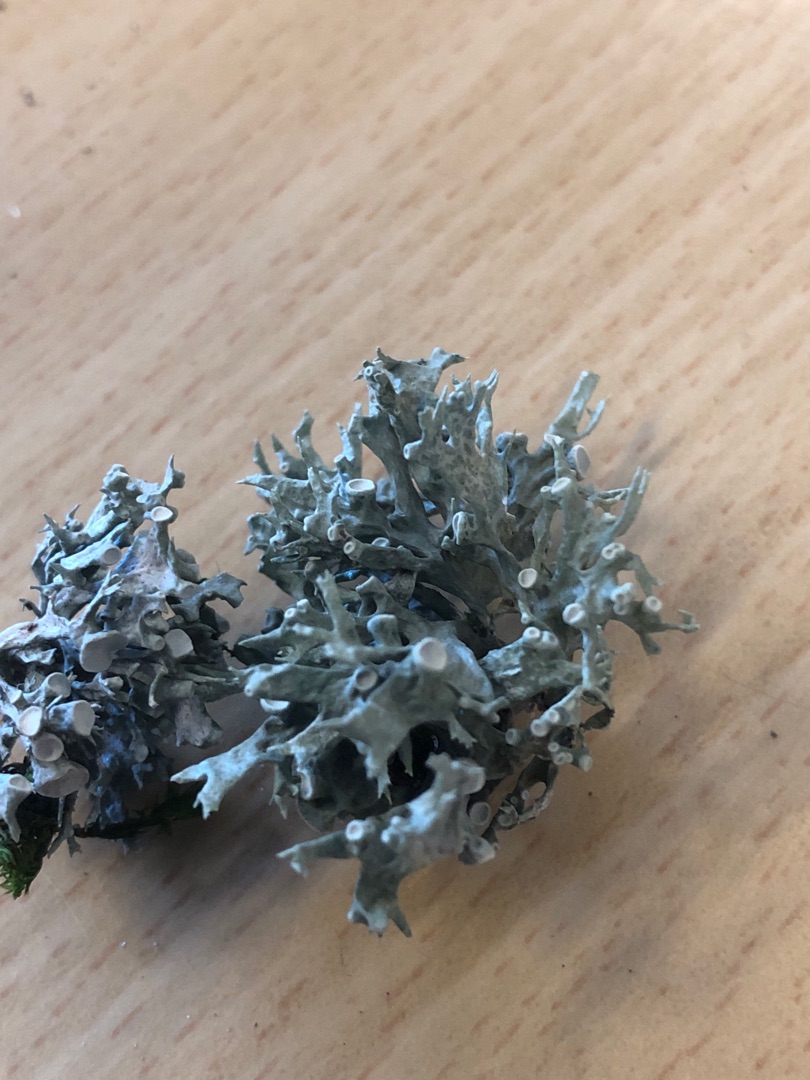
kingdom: Fungi
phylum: Ascomycota
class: Lecanoromycetes
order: Lecanorales
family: Ramalinaceae
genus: Ramalina
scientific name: Ramalina fastigiata
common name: Tue-grenlav
